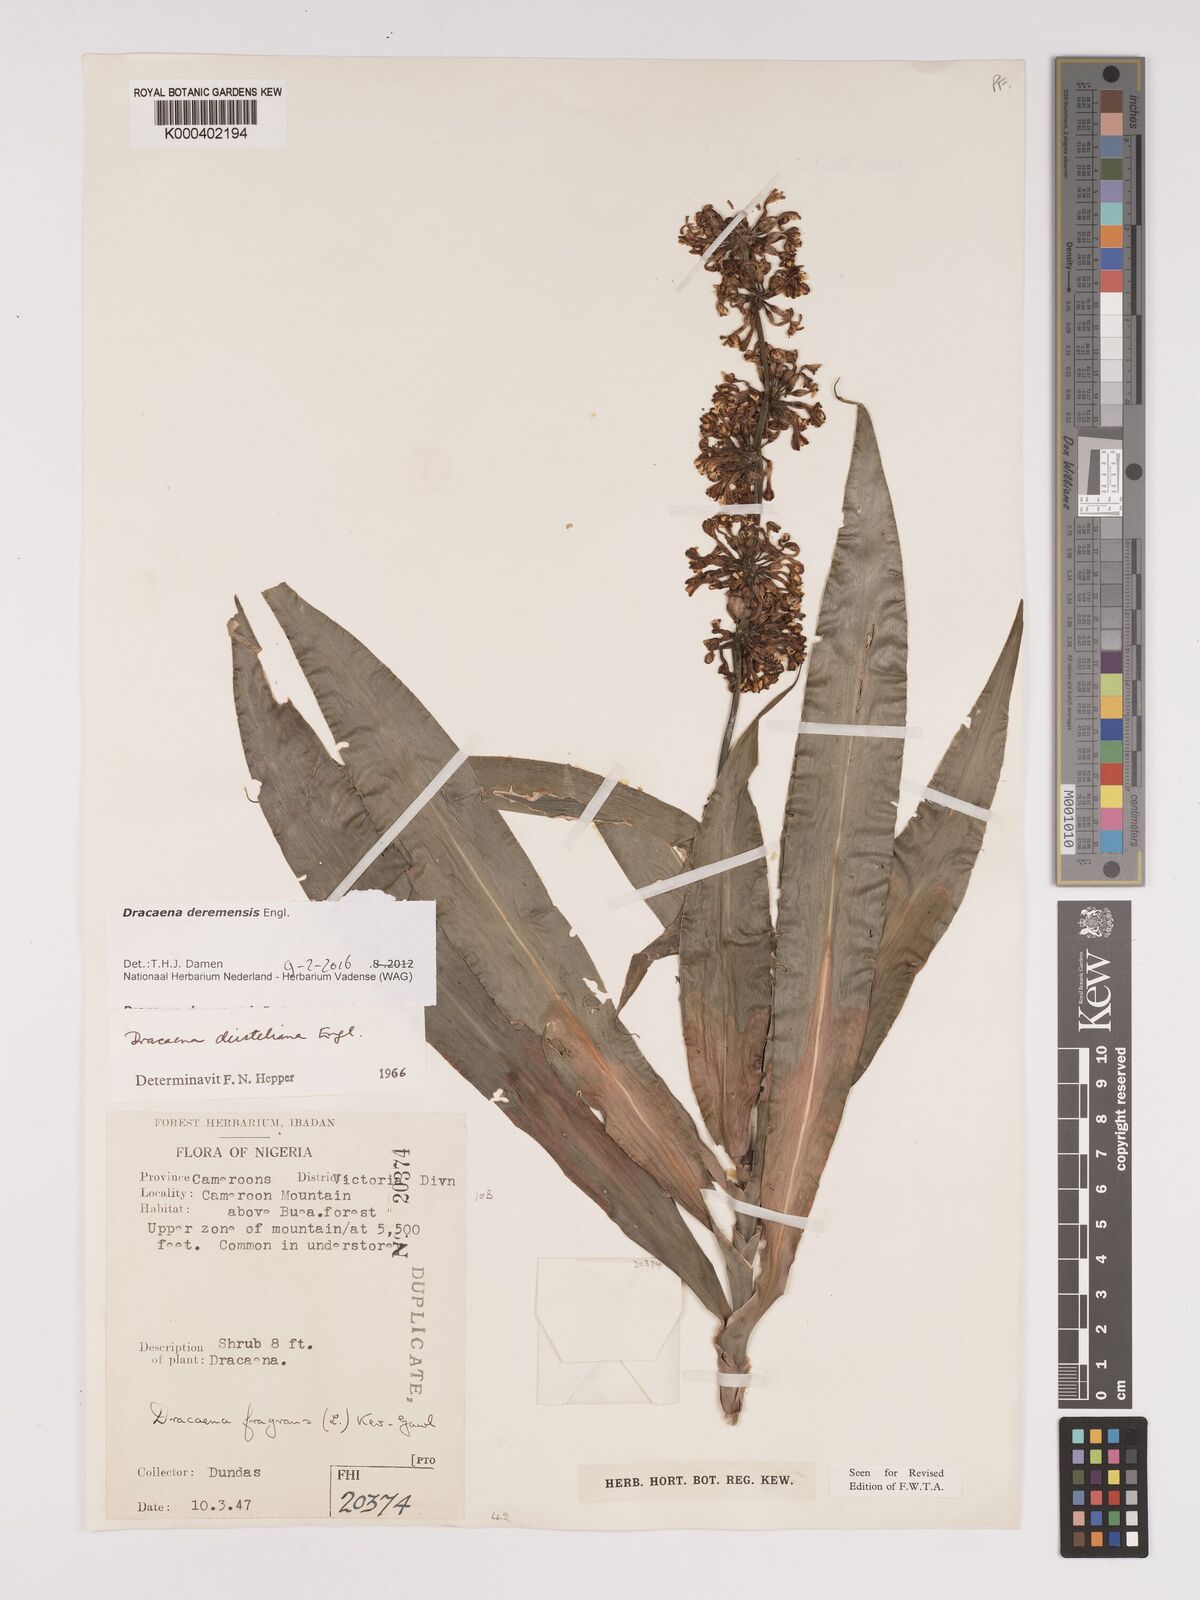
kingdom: Plantae
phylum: Tracheophyta
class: Liliopsida
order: Asparagales
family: Asparagaceae
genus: Dracaena
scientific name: Dracaena fragrans
